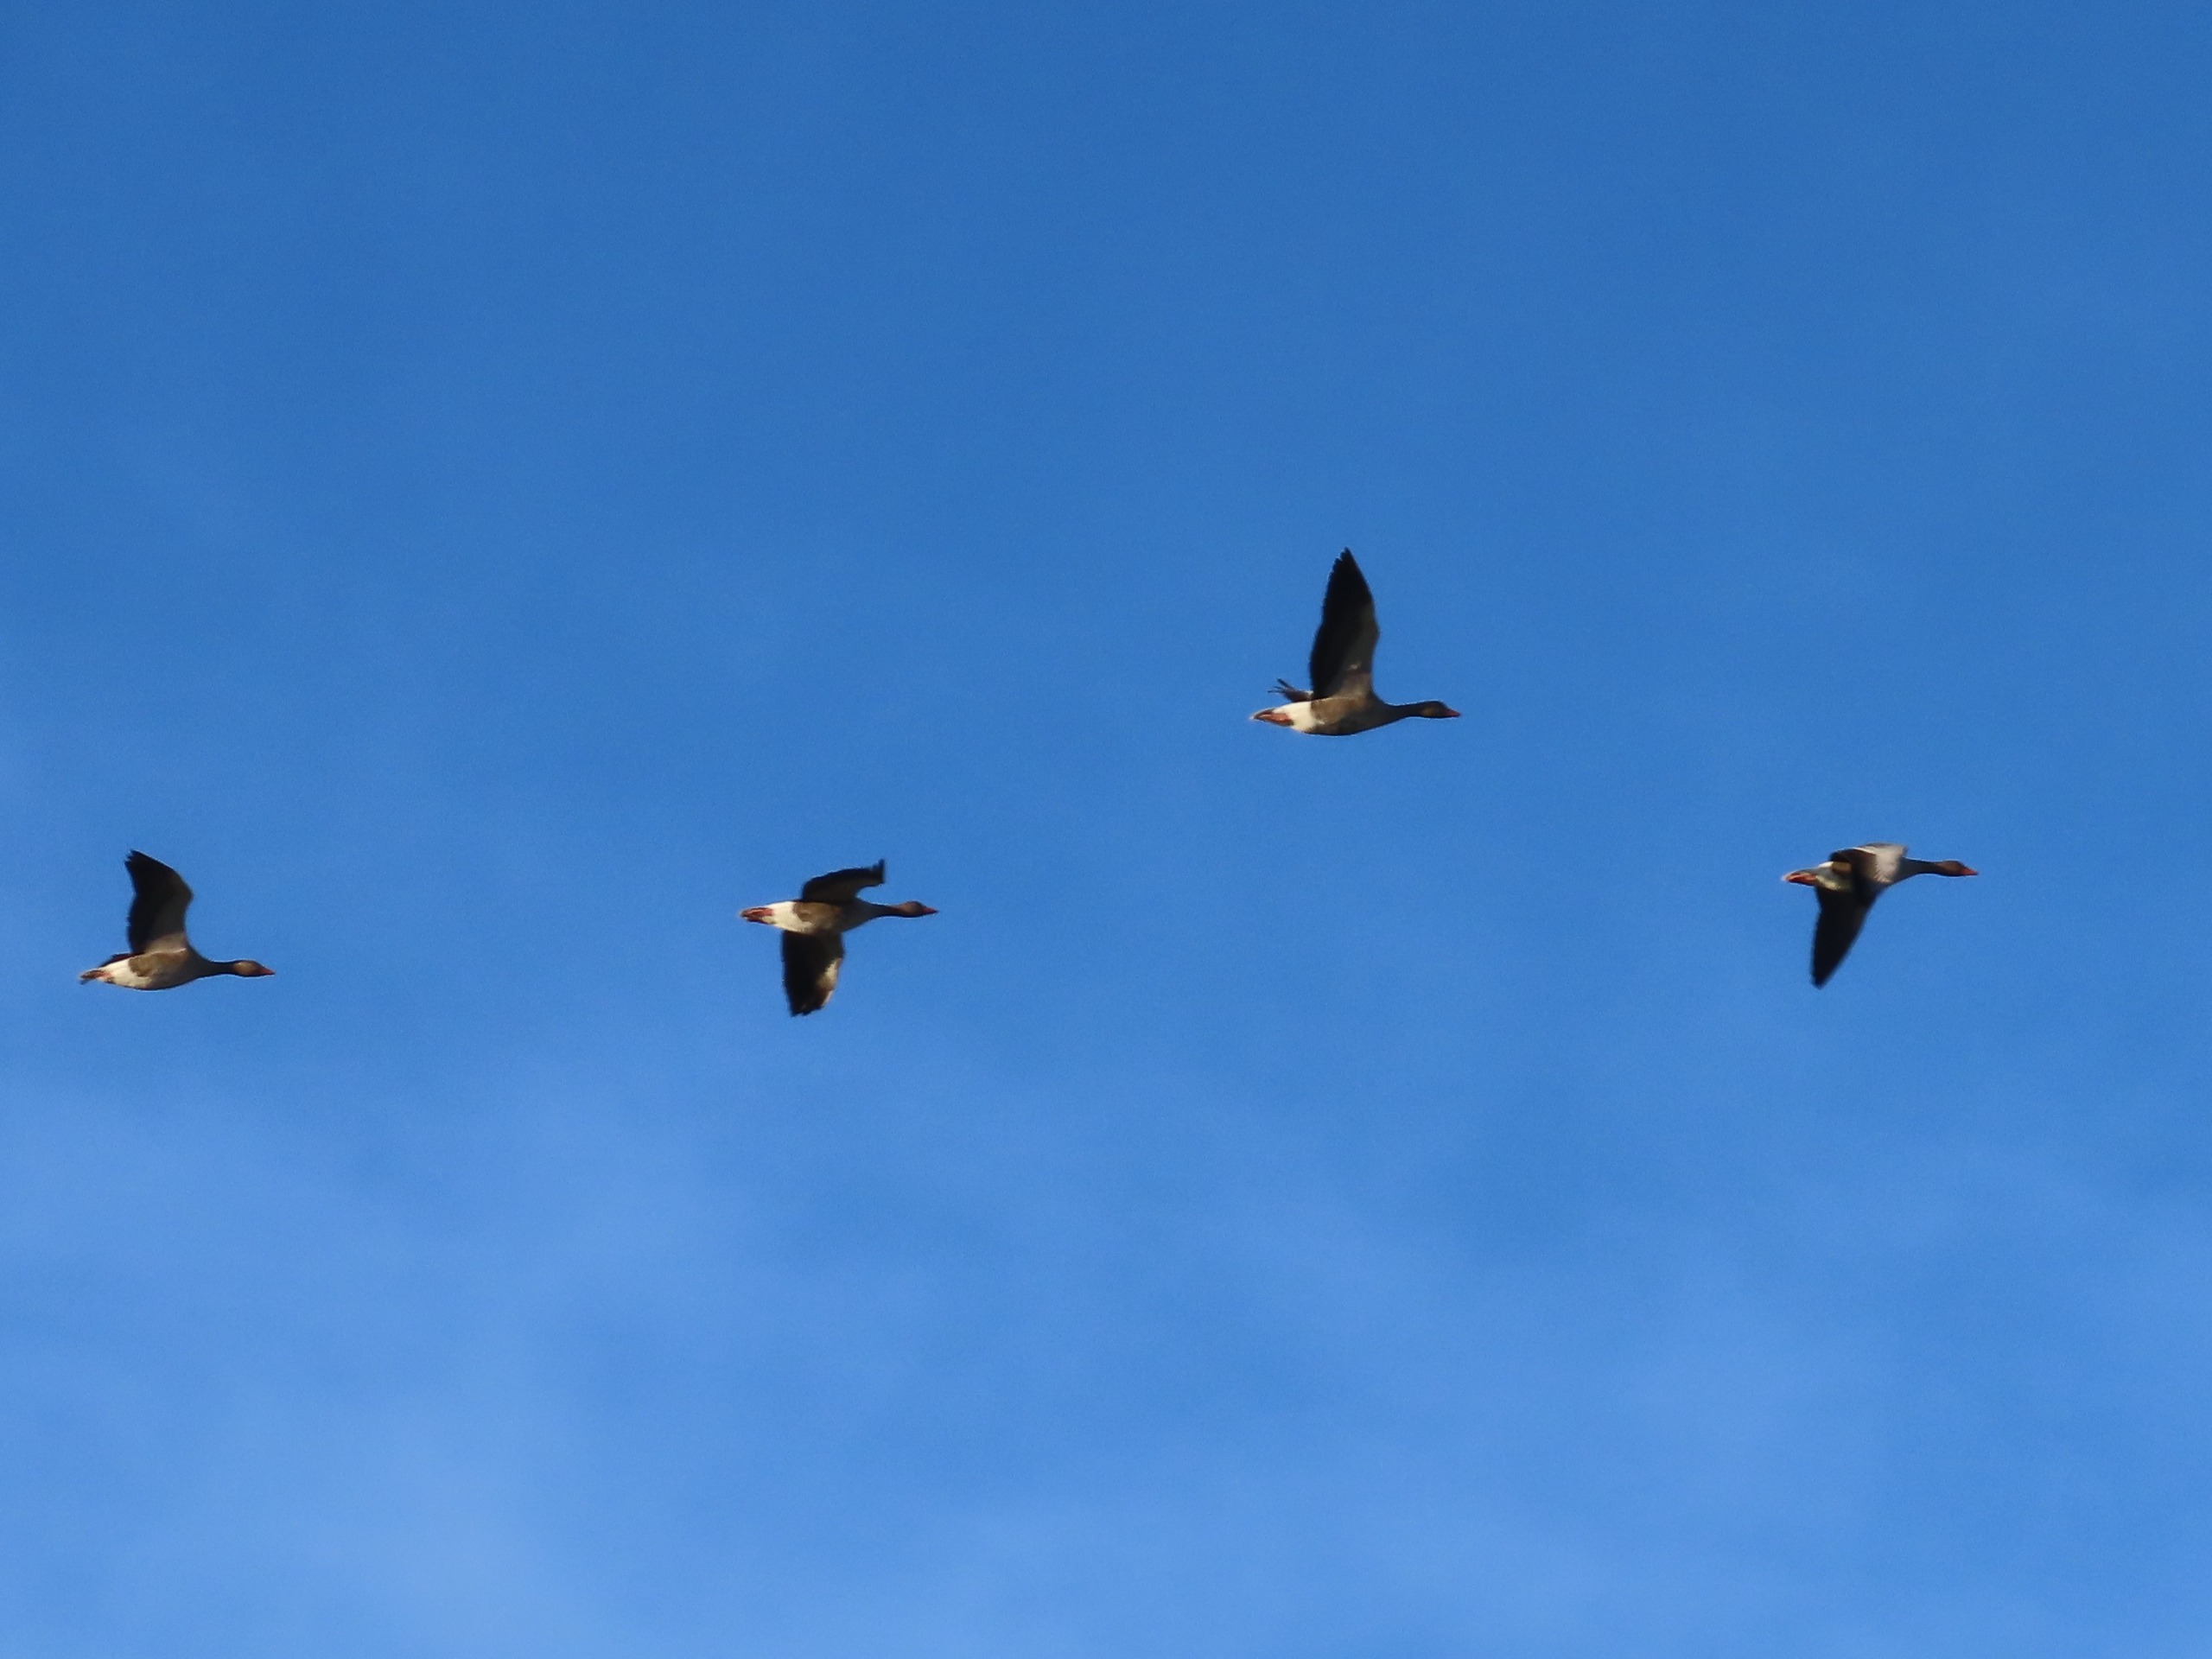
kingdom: Animalia
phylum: Chordata
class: Aves
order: Anseriformes
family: Anatidae
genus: Anser
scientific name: Anser anser
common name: Grågås
